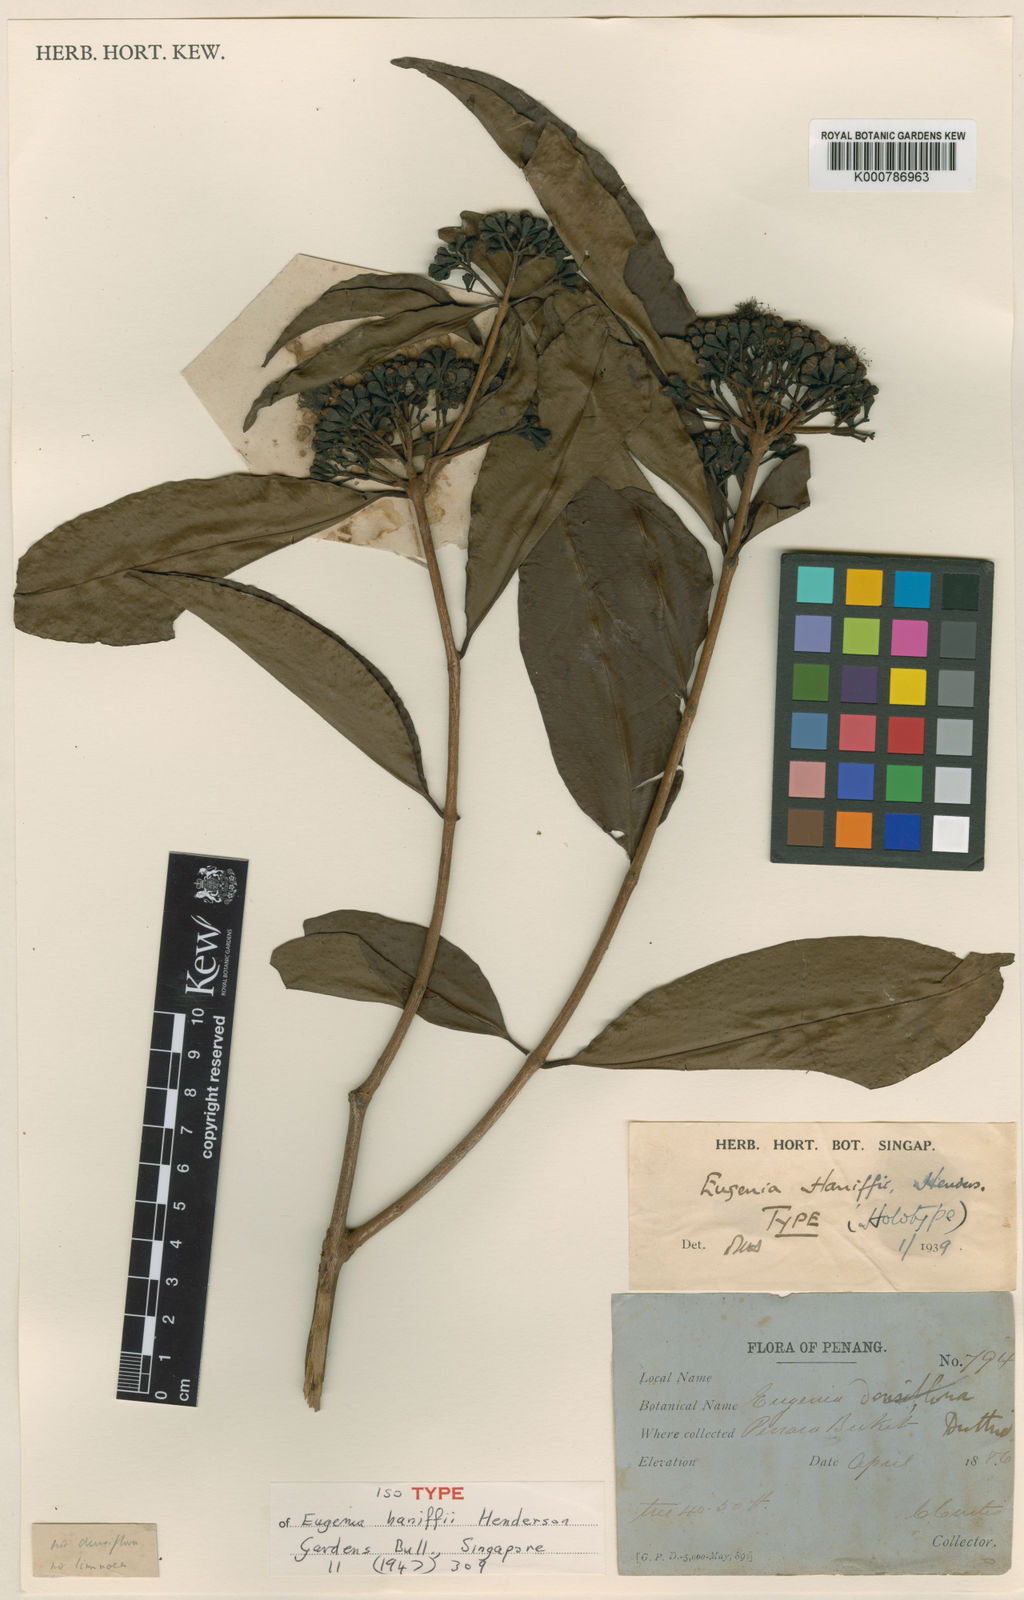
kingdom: Plantae
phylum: Tracheophyta
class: Magnoliopsida
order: Myrtales
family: Myrtaceae
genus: Syzygium
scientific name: Syzygium haniffii
